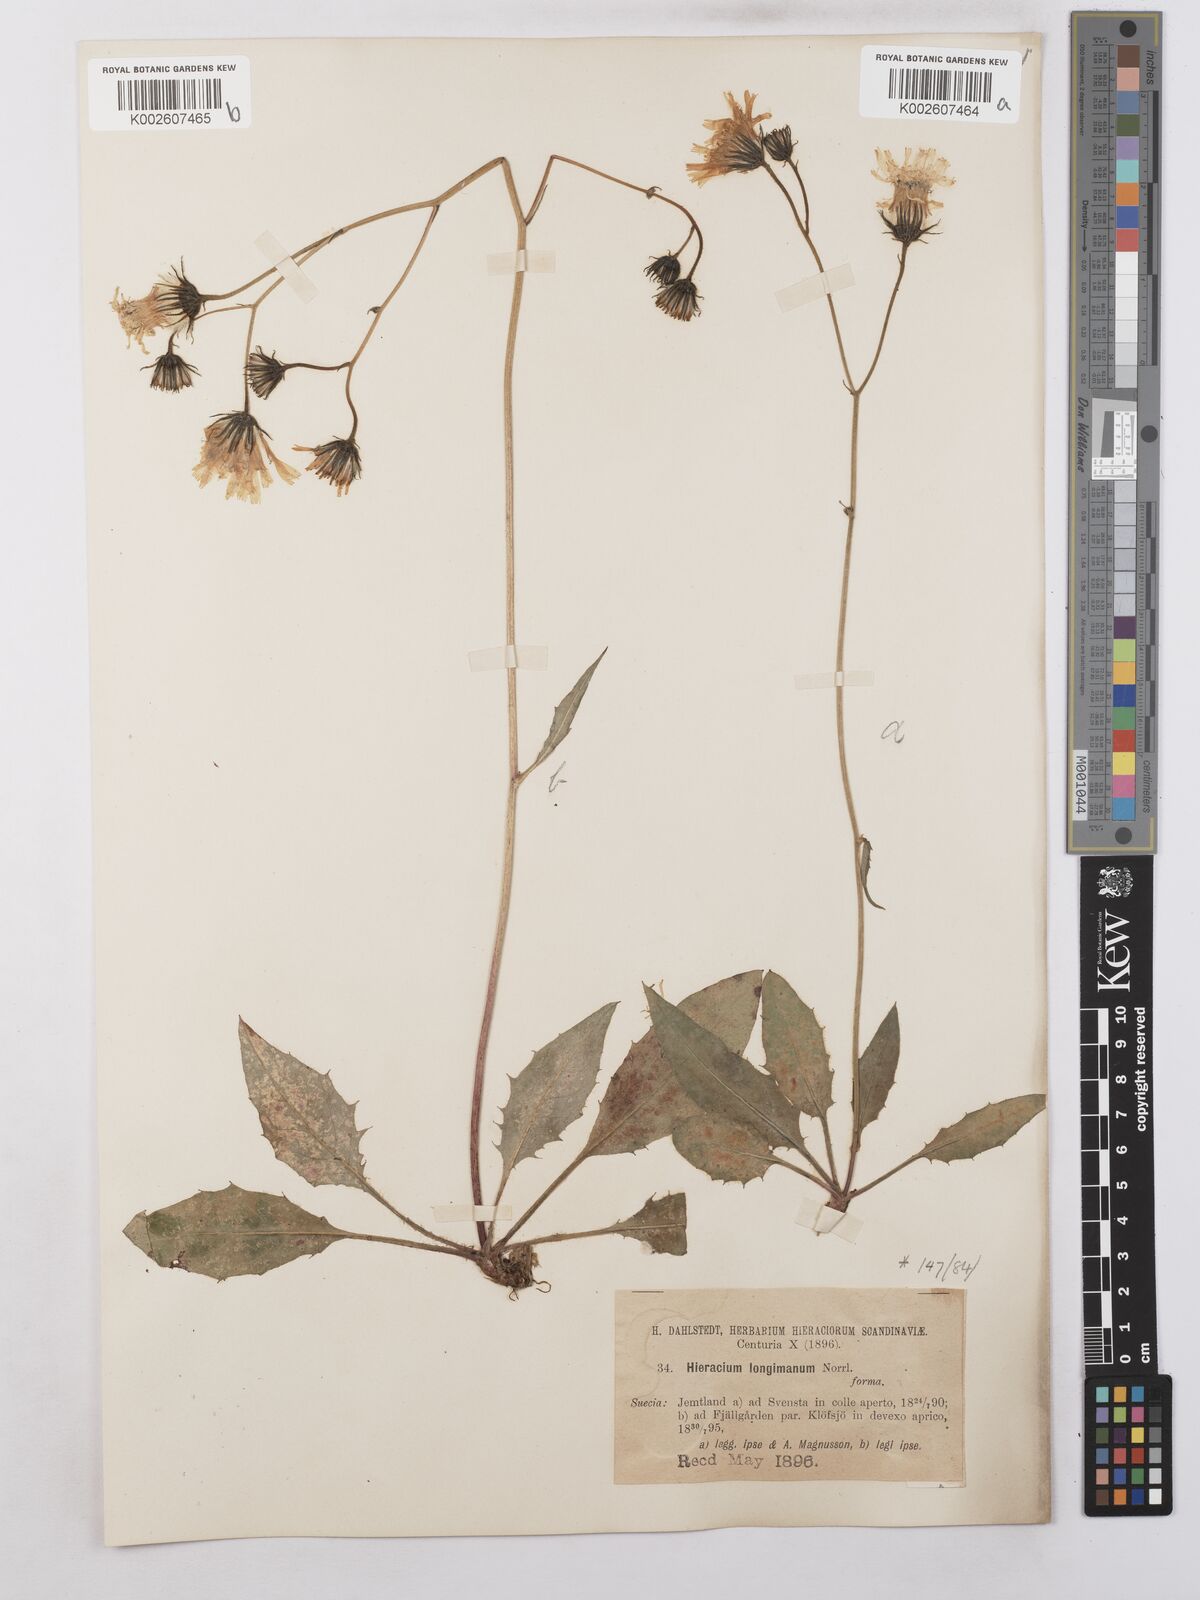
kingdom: Plantae
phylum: Tracheophyta
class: Magnoliopsida
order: Asterales
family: Asteraceae
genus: Hieracium
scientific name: Hieracium caesium
